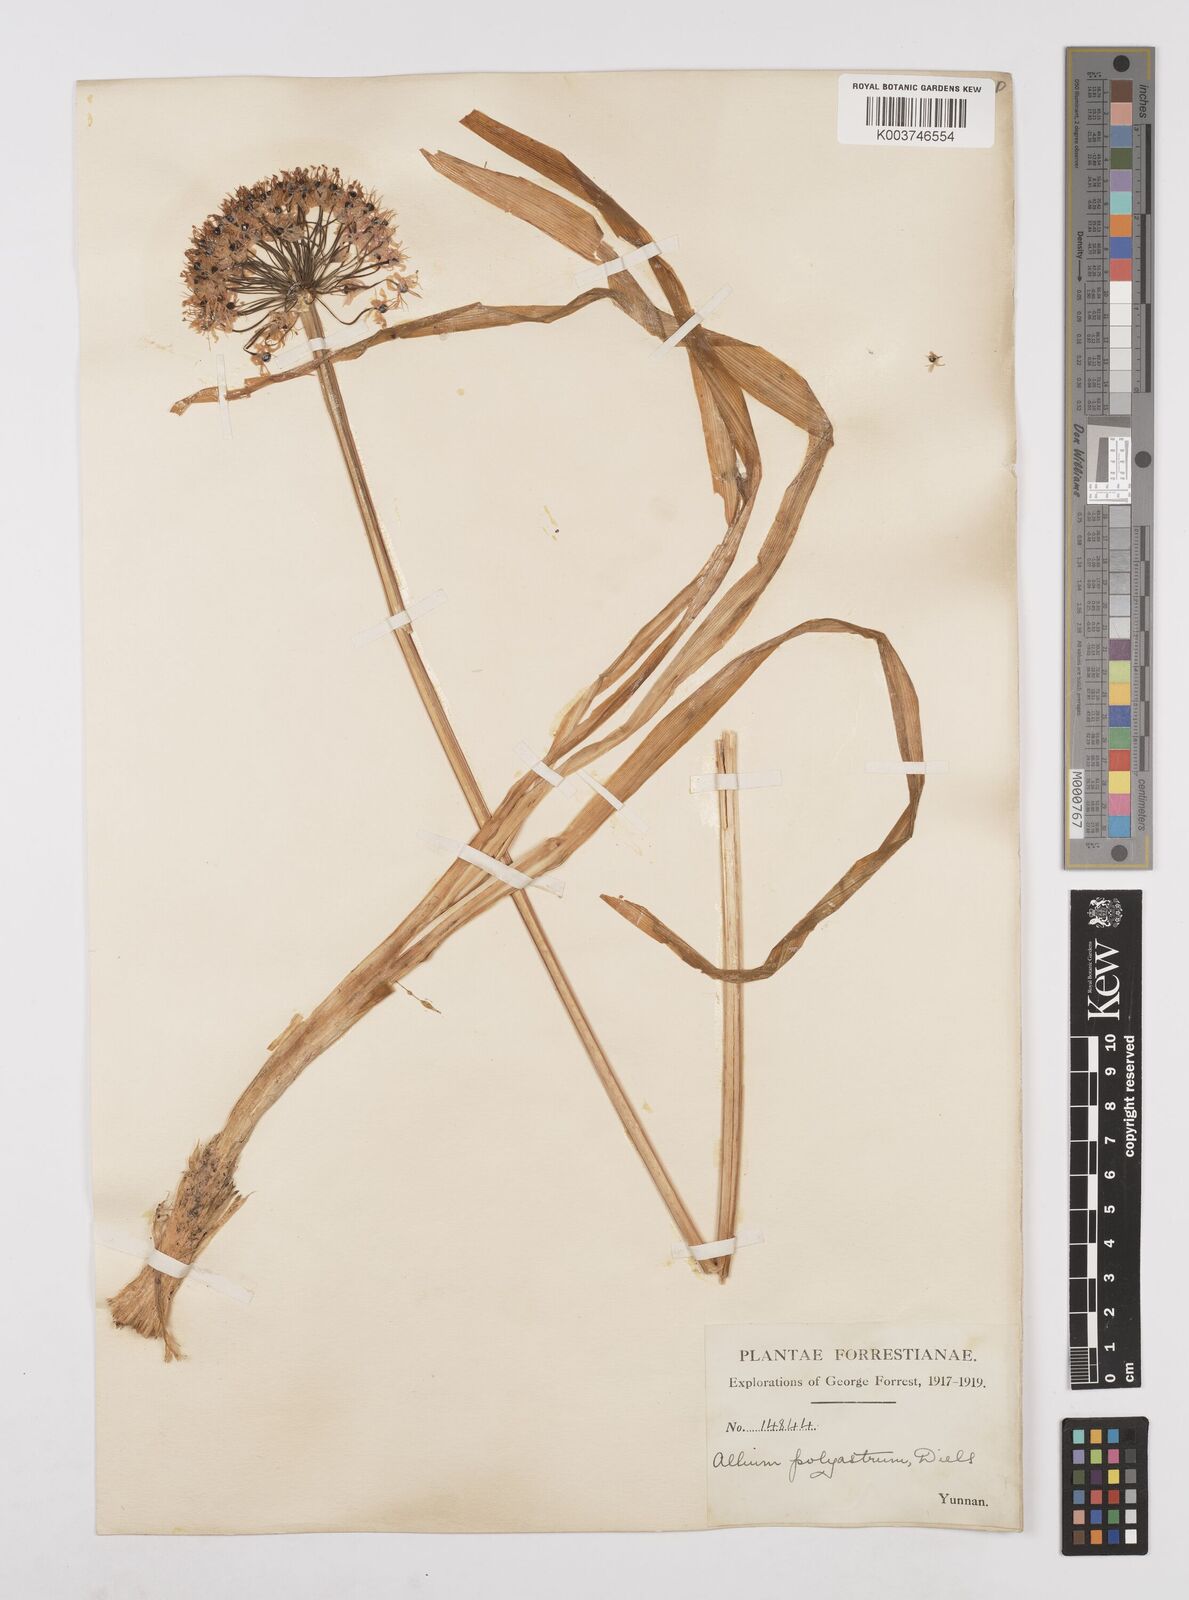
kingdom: Plantae
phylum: Tracheophyta
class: Liliopsida
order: Asparagales
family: Amaryllidaceae
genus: Allium
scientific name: Allium wallichii
